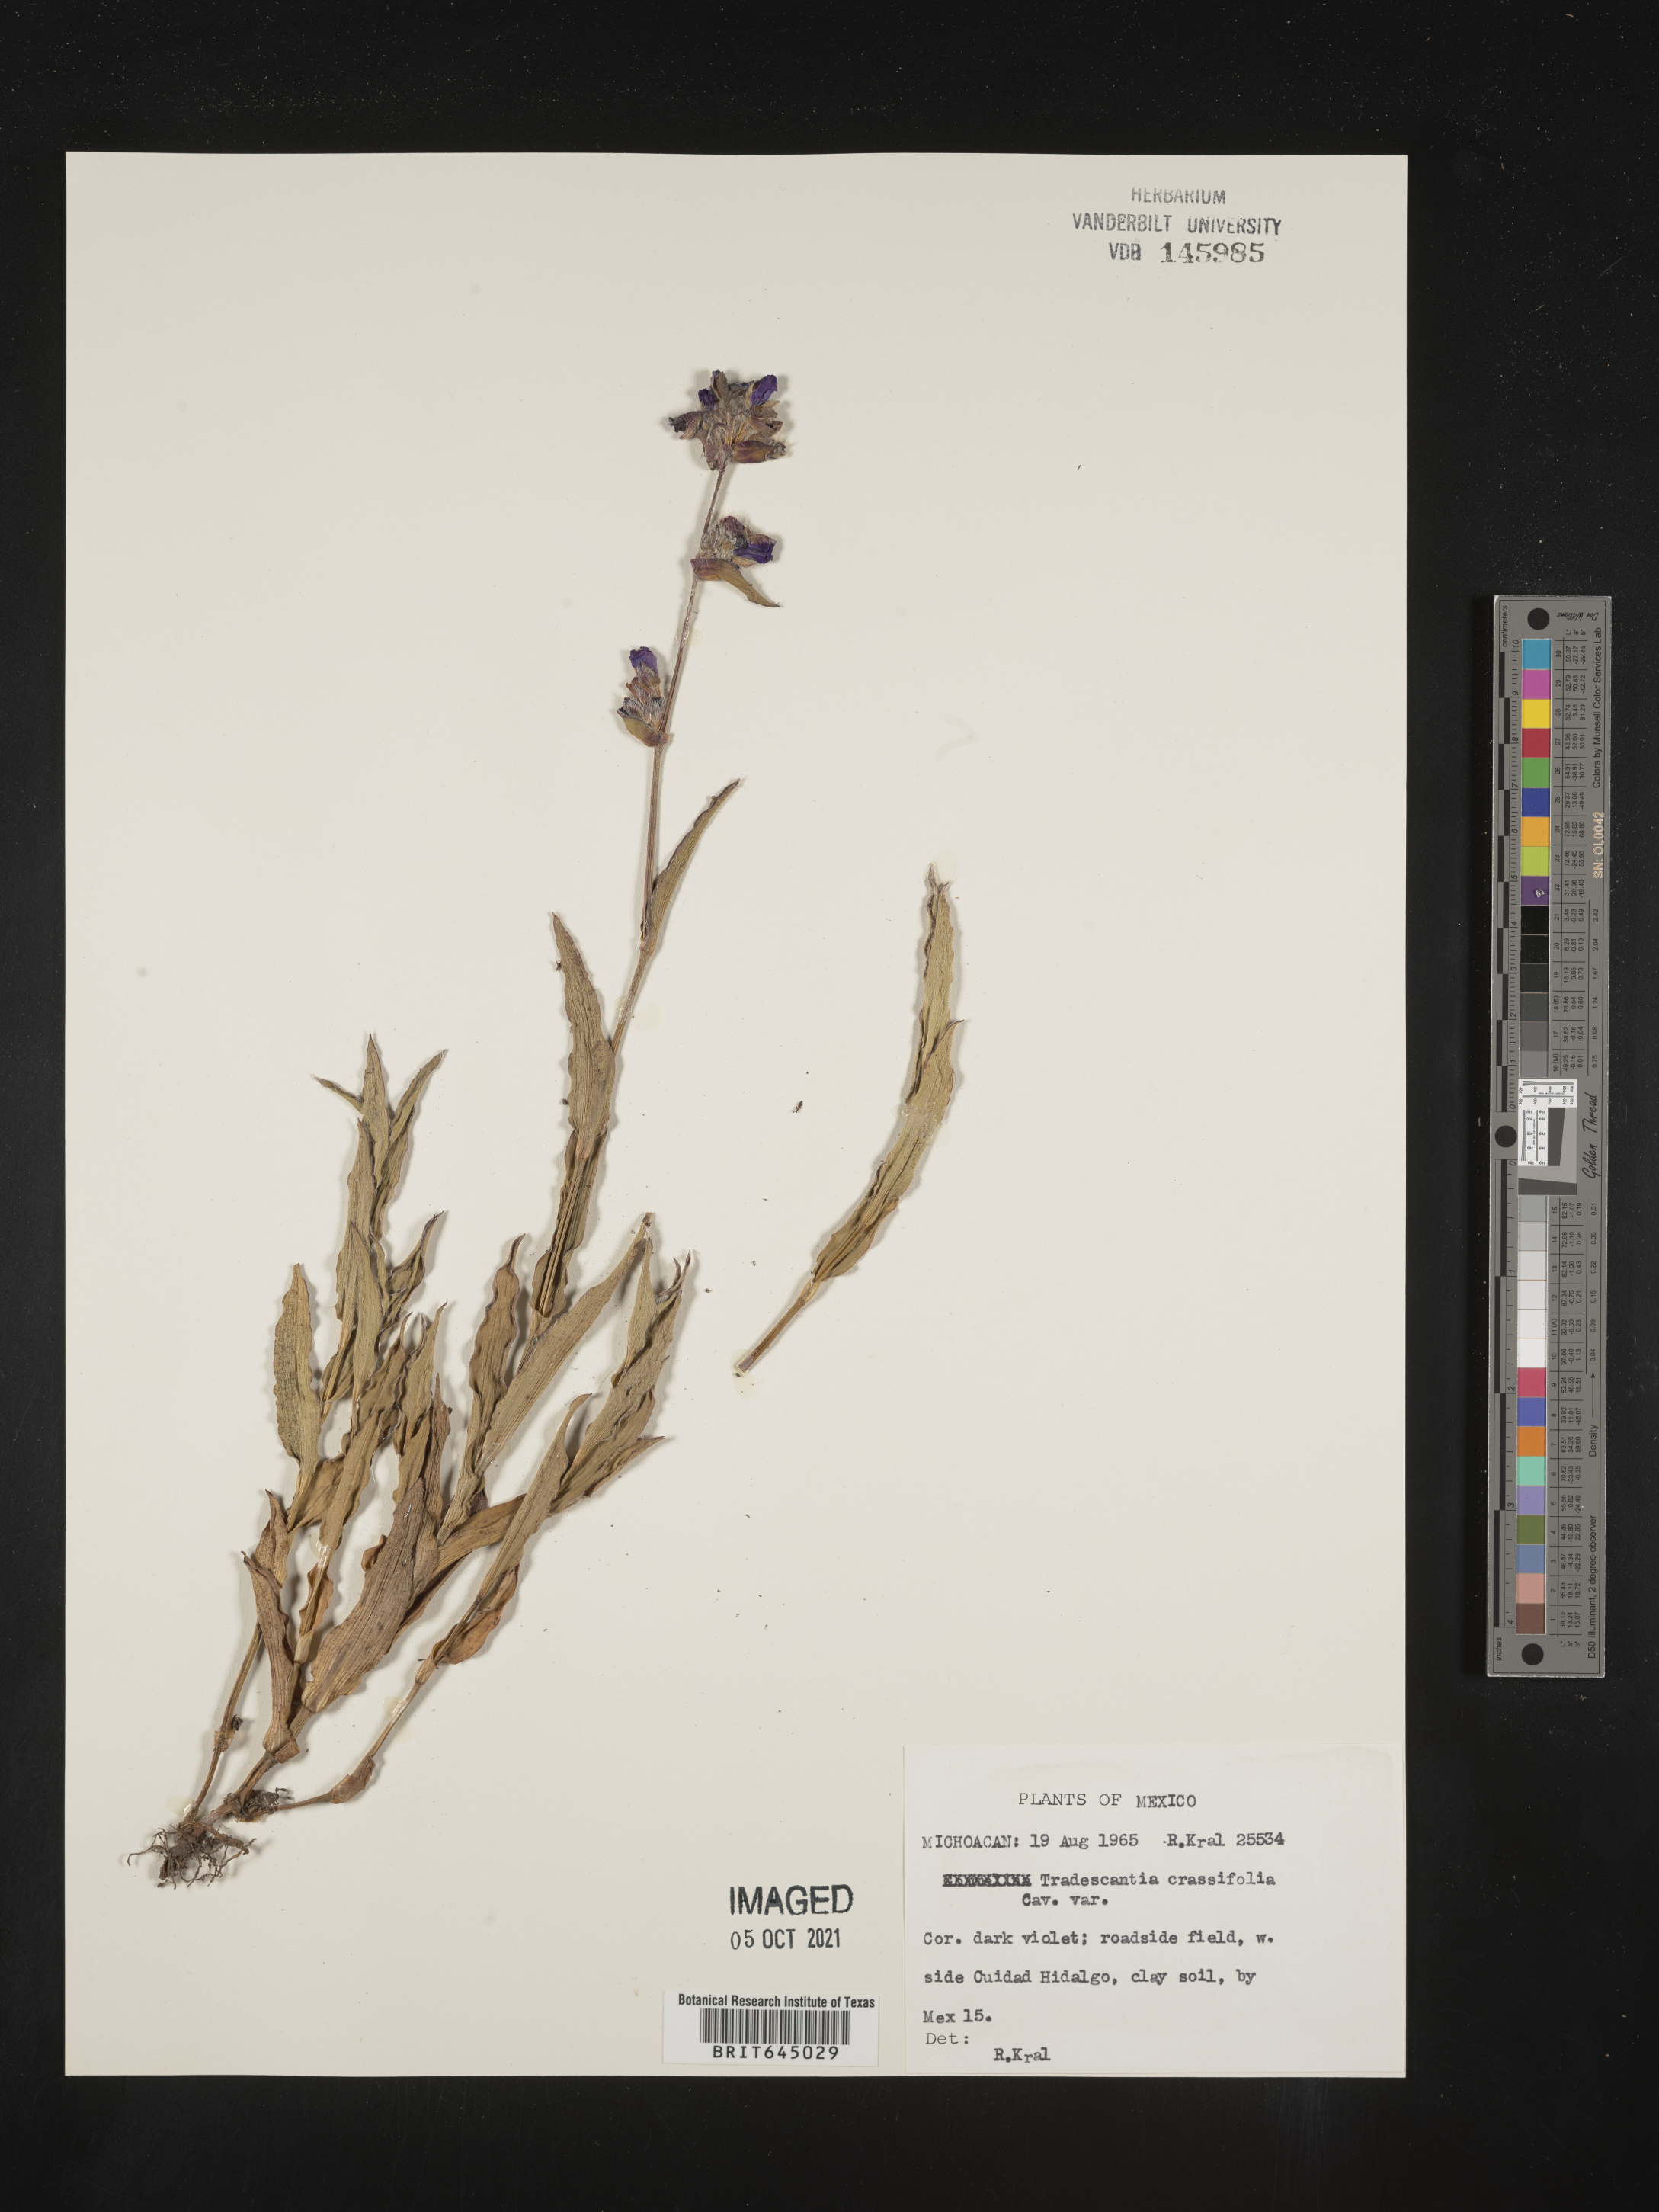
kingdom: Plantae
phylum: Tracheophyta
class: Liliopsida
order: Commelinales
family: Commelinaceae
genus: Tradescantia
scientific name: Tradescantia
